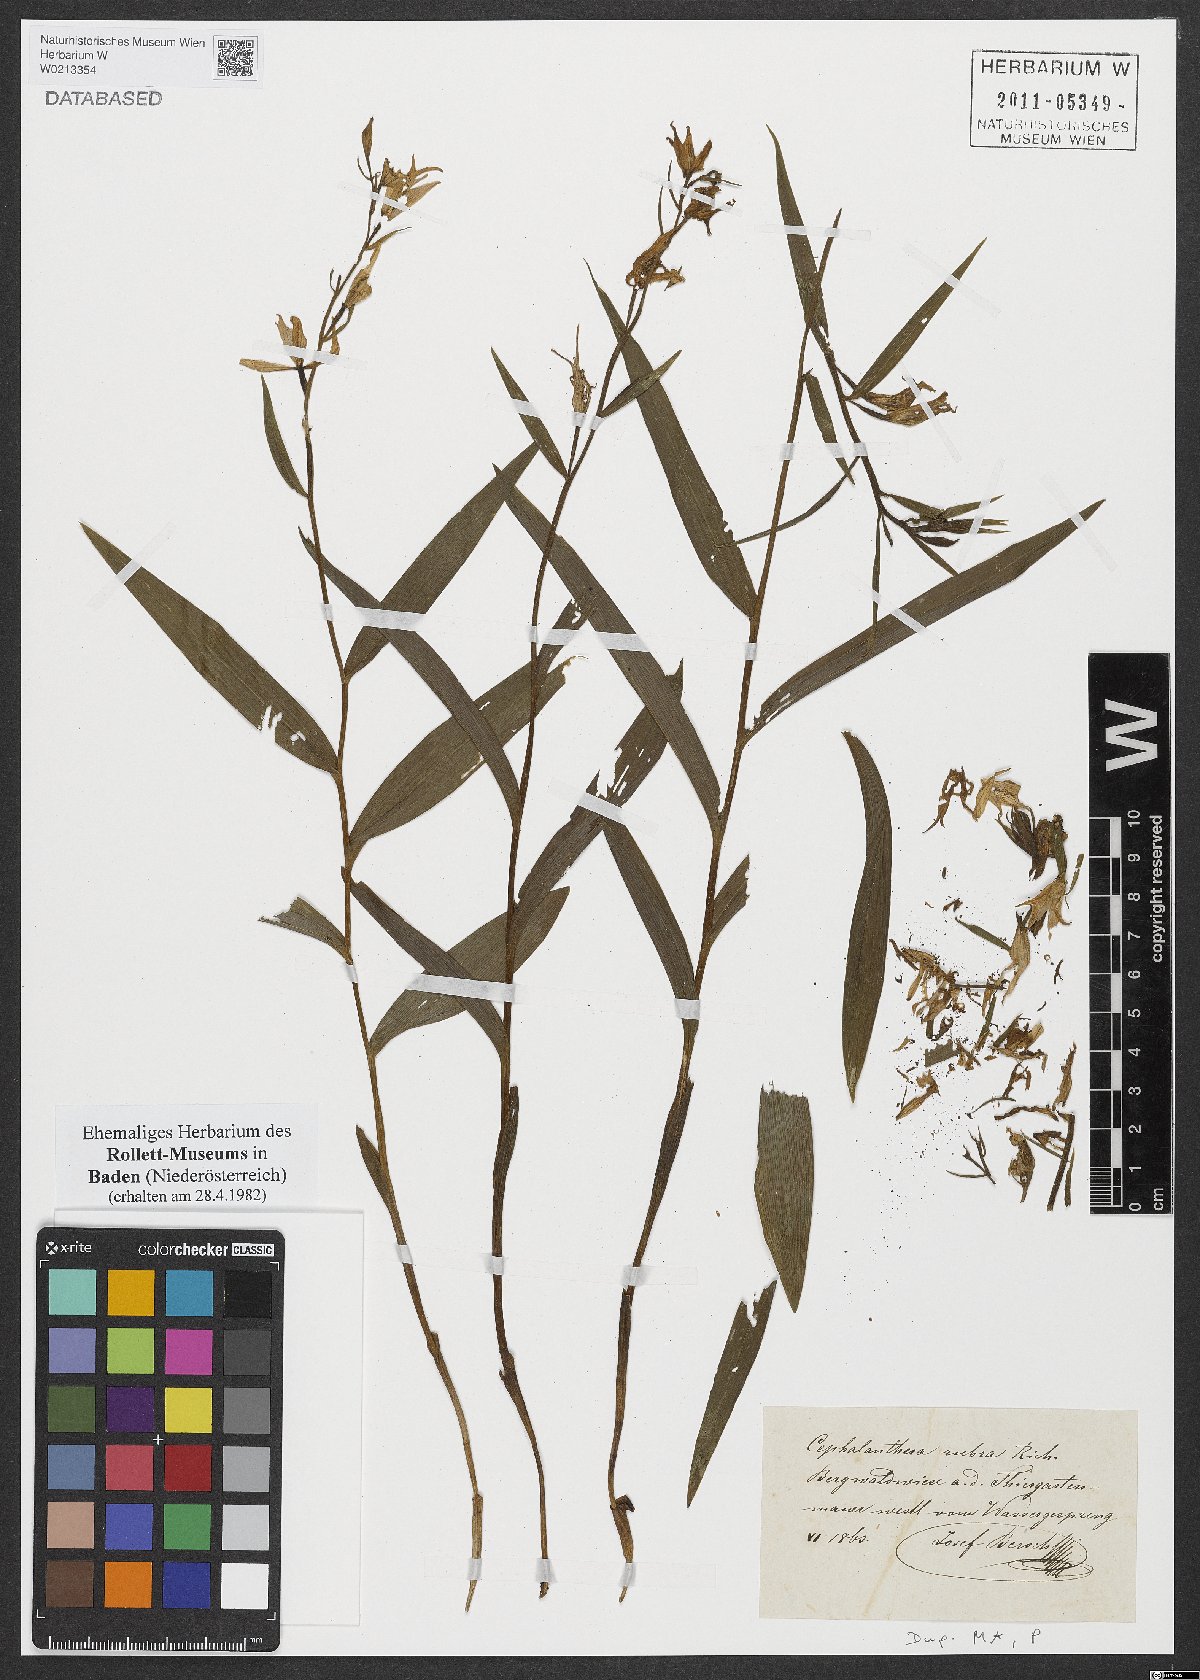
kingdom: Plantae
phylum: Tracheophyta
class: Liliopsida
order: Asparagales
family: Orchidaceae
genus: Cephalanthera
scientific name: Cephalanthera rubra
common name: Red helleborine
